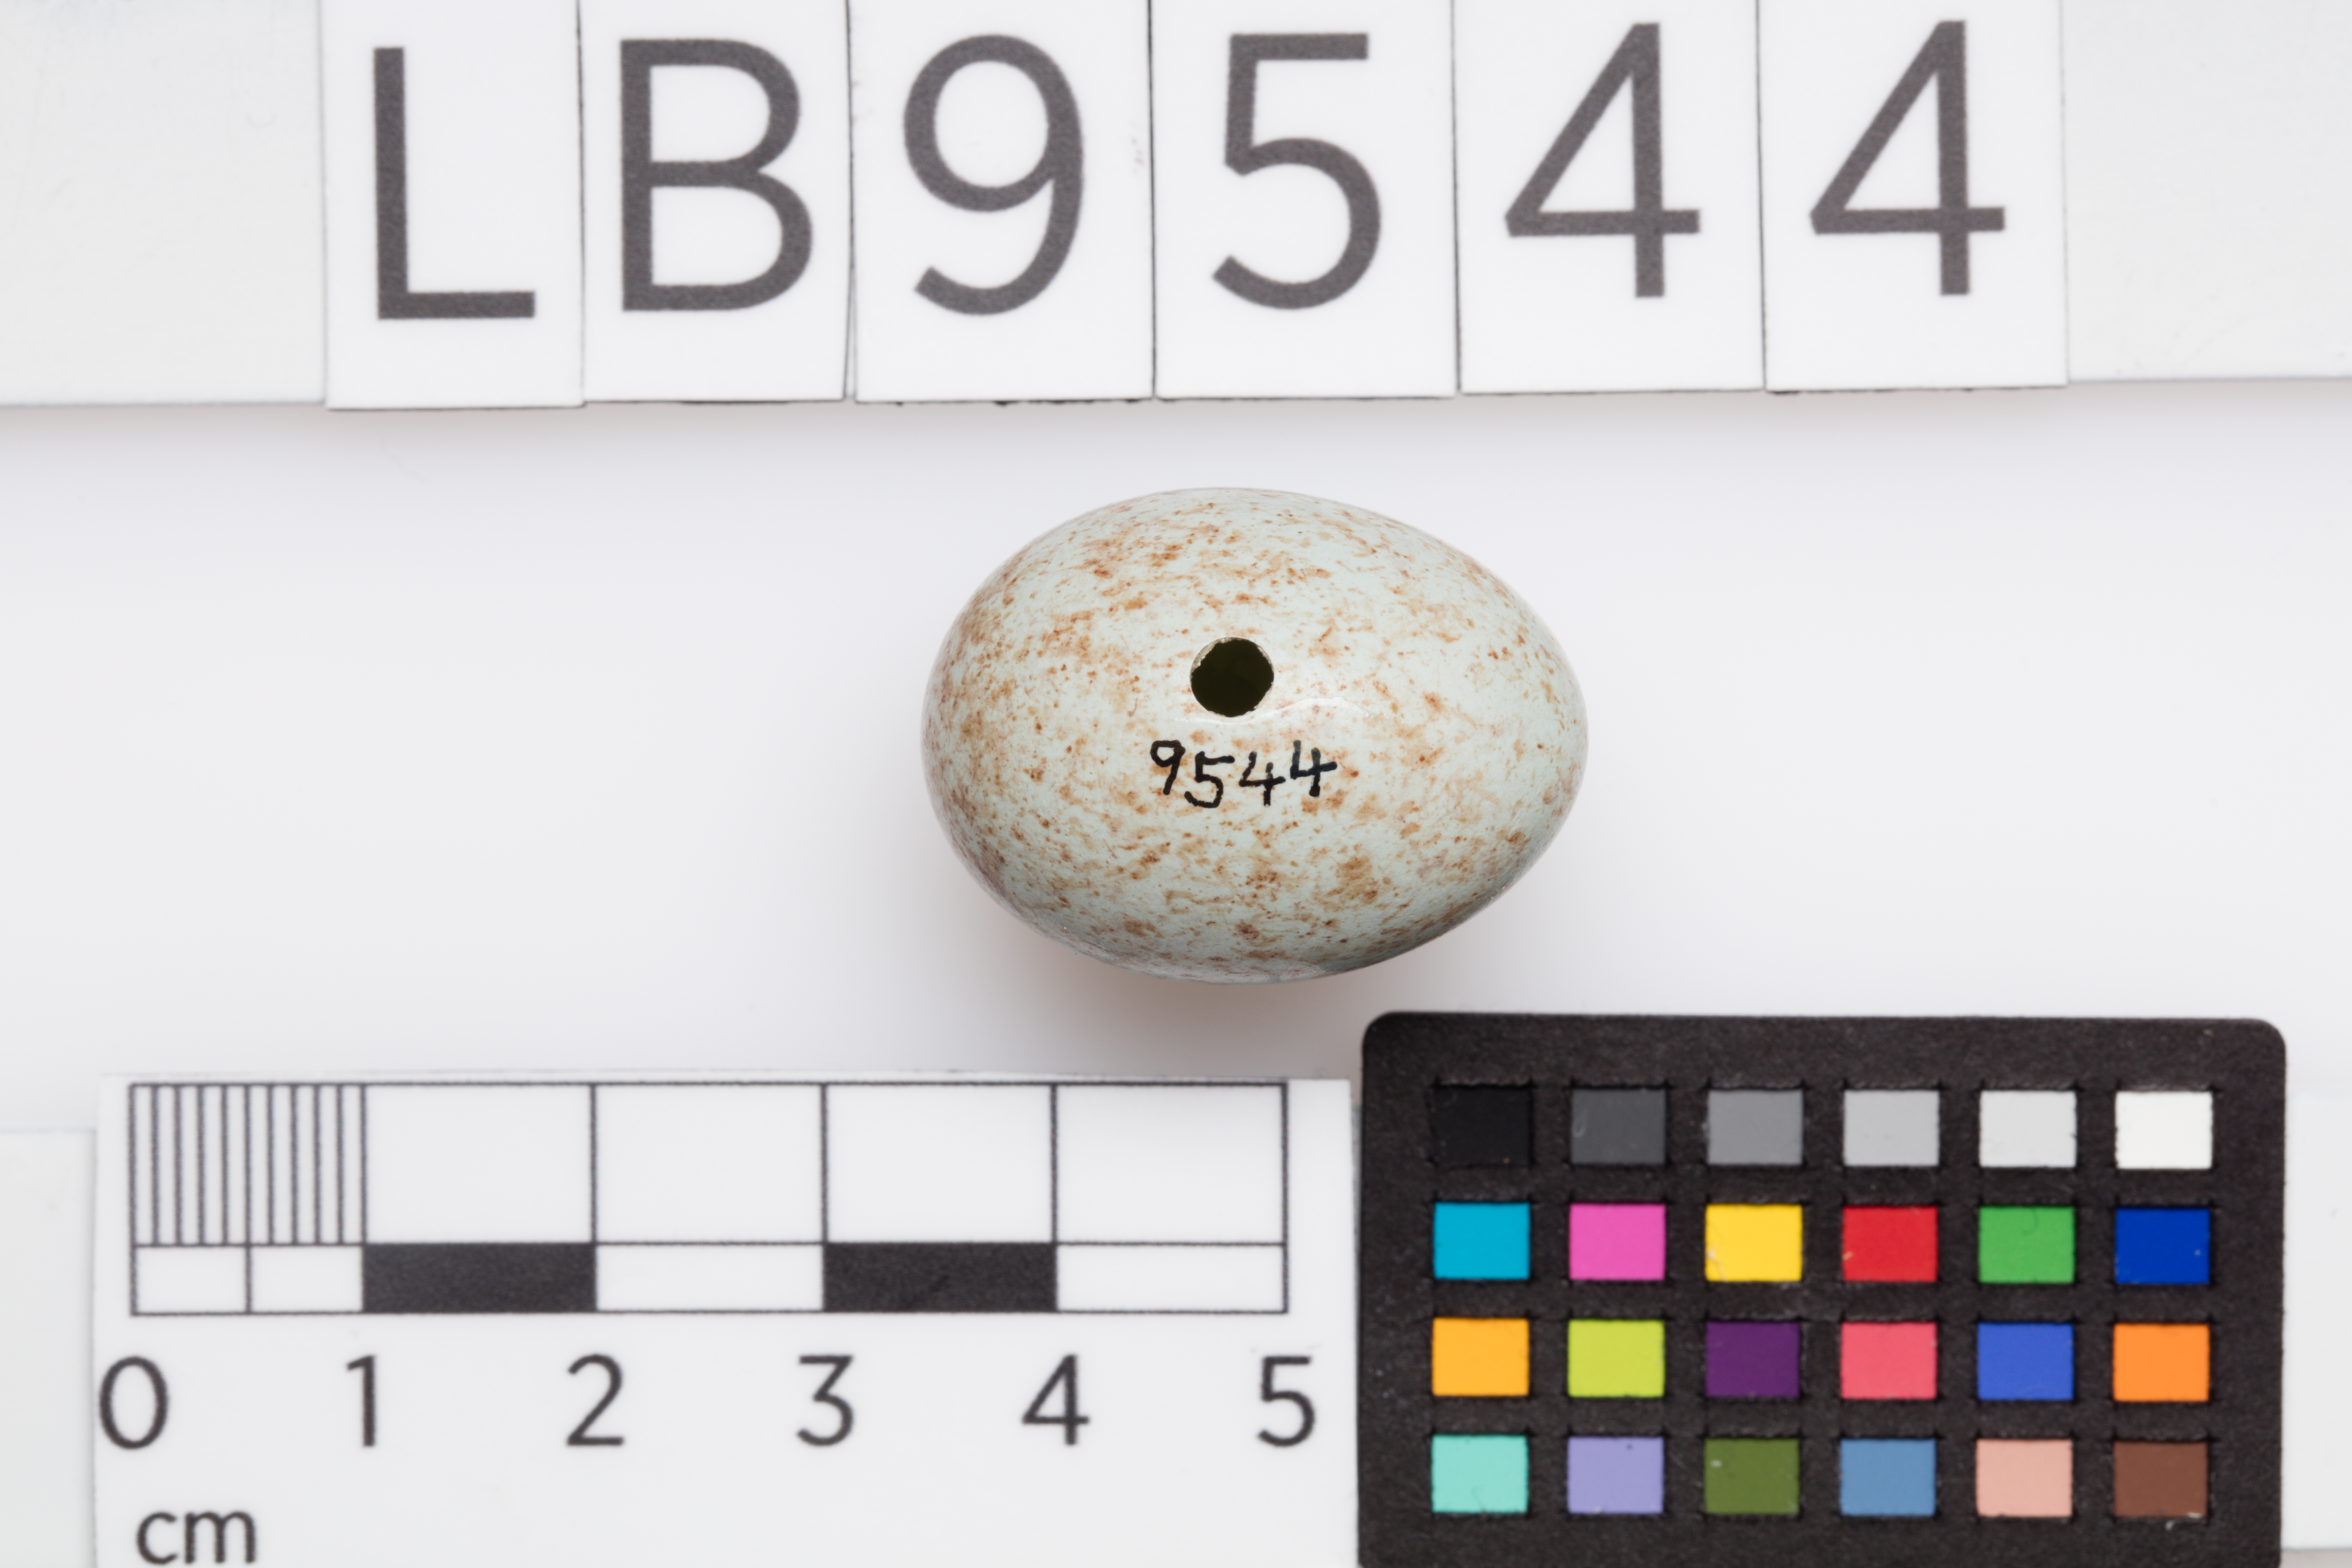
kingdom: Animalia
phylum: Chordata
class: Aves
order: Passeriformes
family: Turdidae
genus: Turdus
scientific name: Turdus merula
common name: Common blackbird
